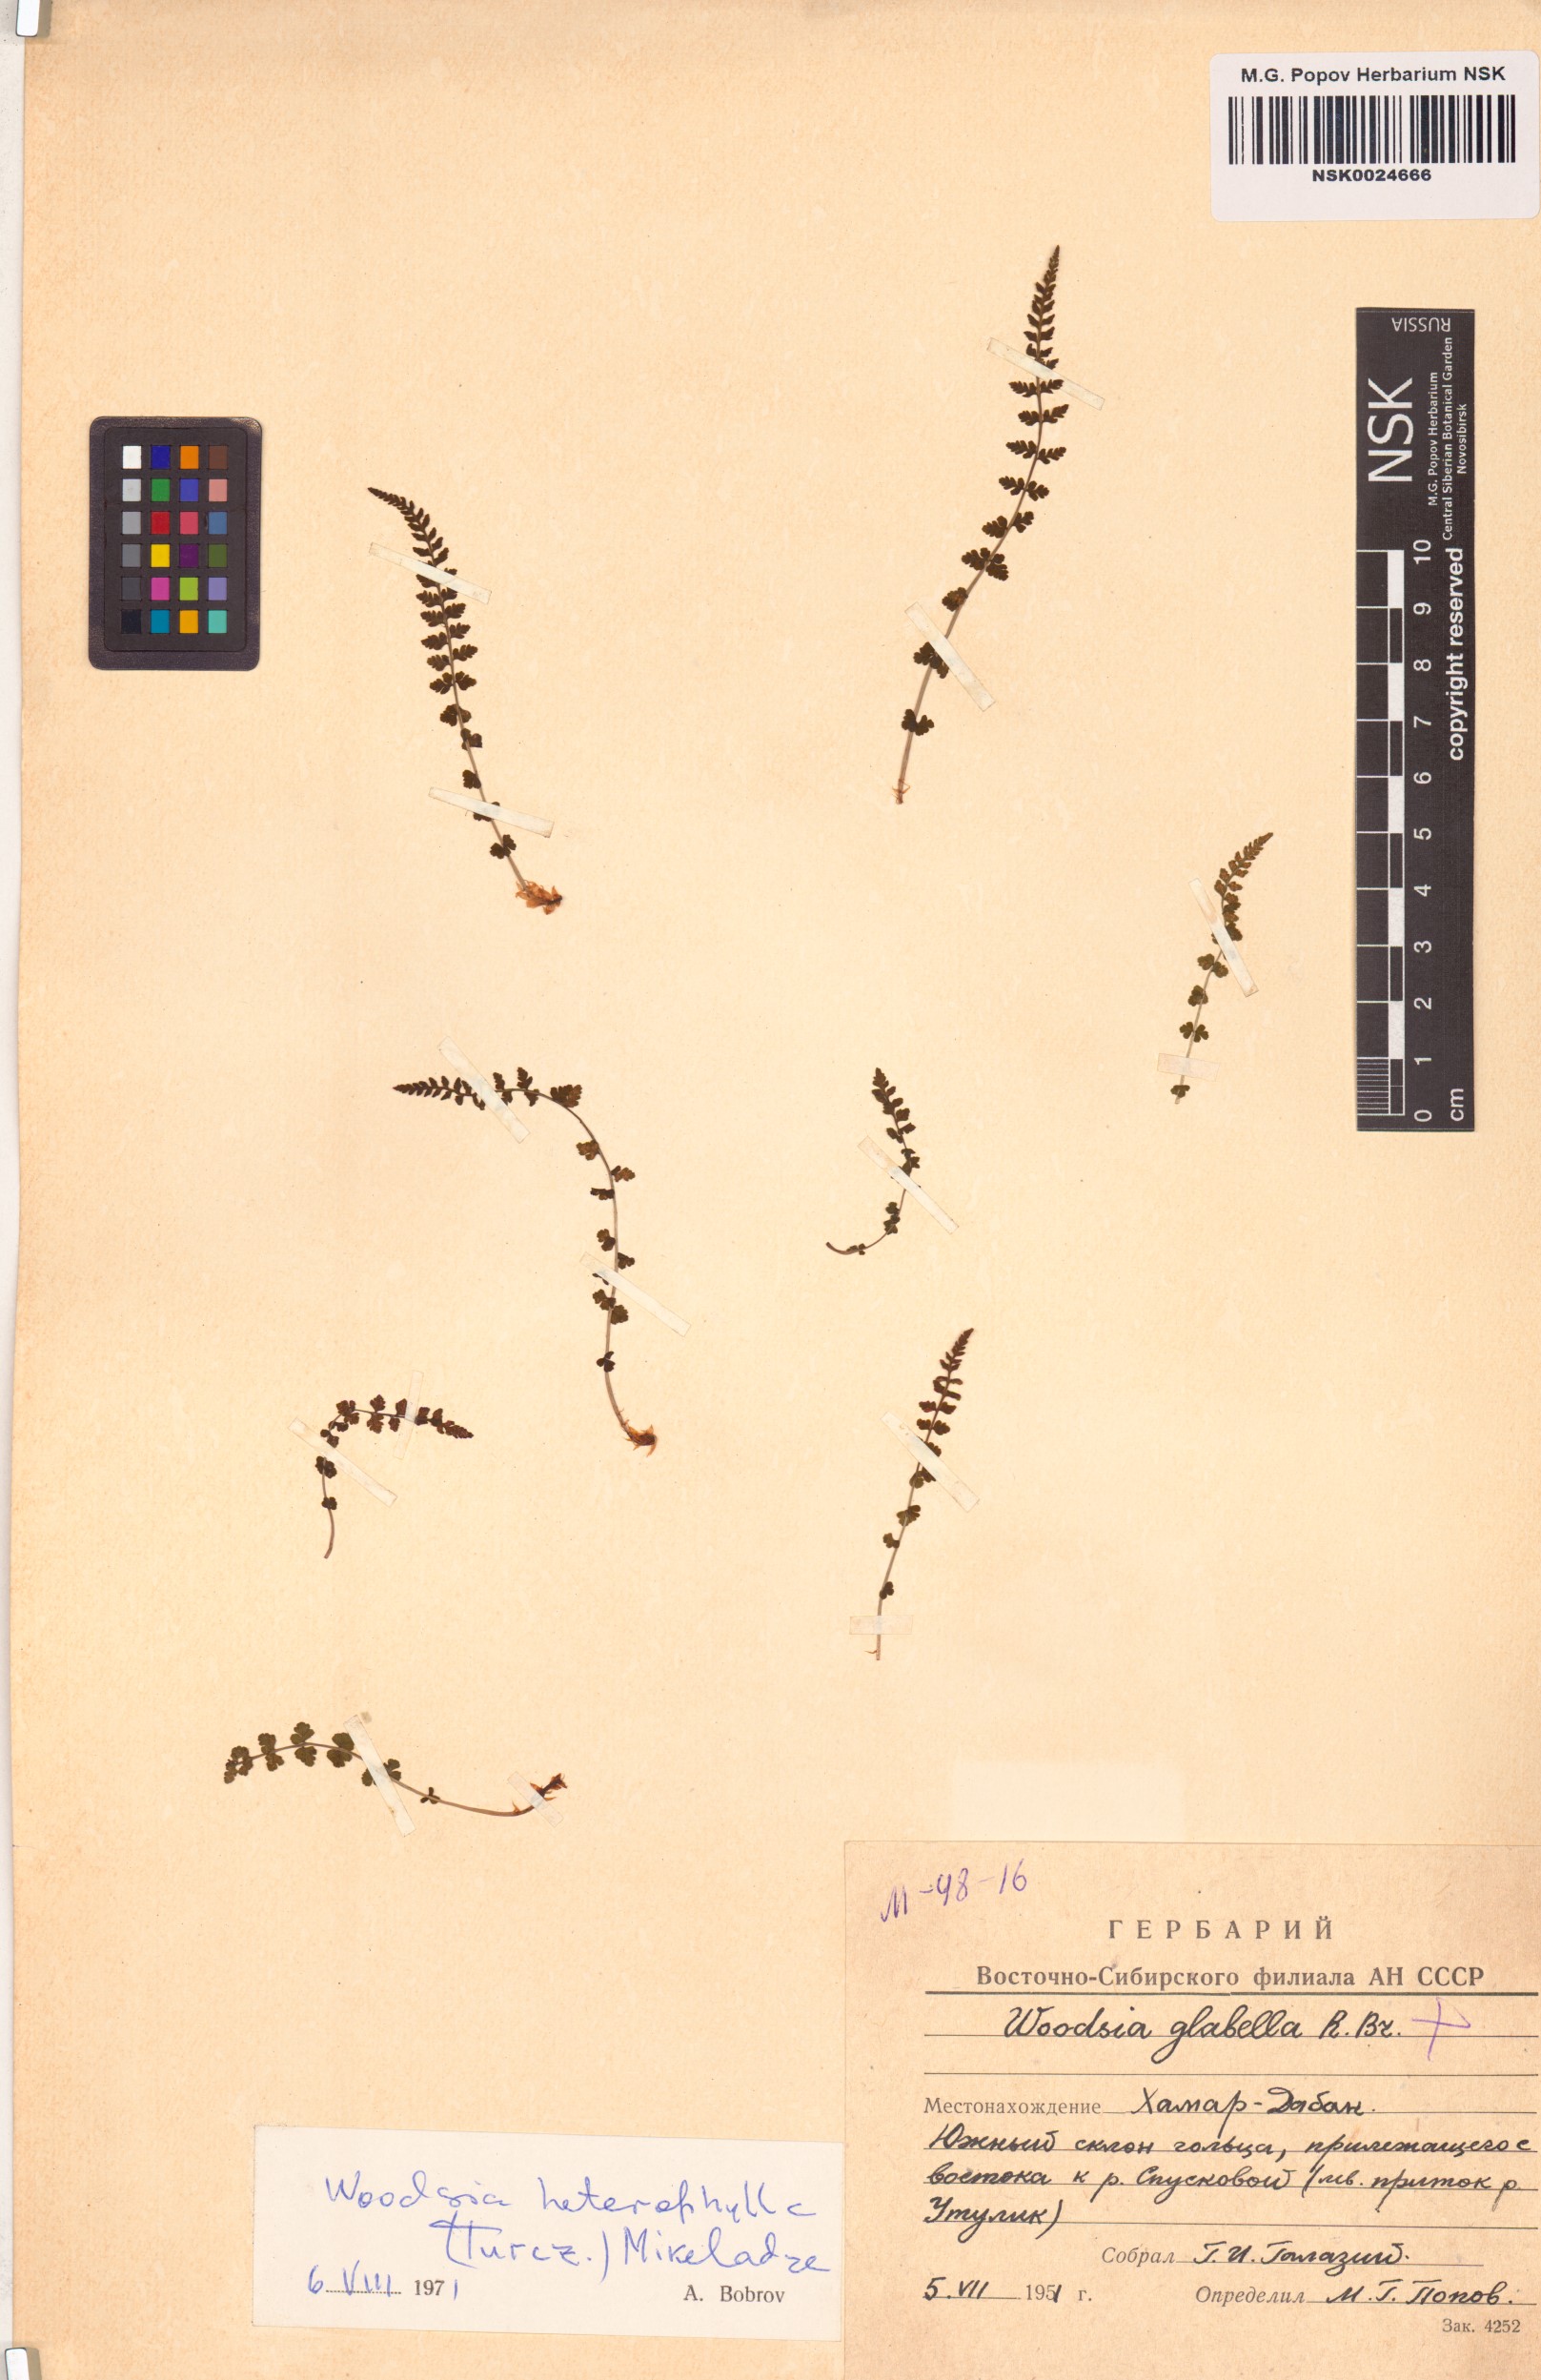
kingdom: Plantae
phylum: Tracheophyta
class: Polypodiopsida
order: Polypodiales
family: Woodsiaceae
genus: Woodsia
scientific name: Woodsia pulchella
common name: Graceful woodsia
